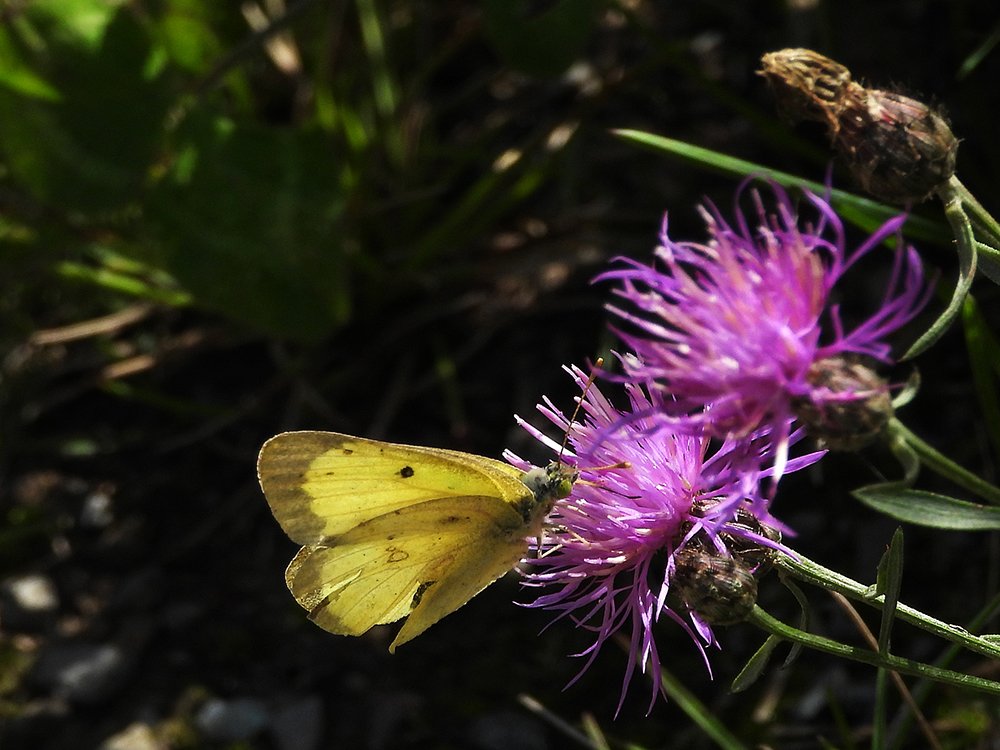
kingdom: Animalia
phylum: Arthropoda
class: Insecta
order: Lepidoptera
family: Pieridae
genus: Colias
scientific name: Colias philodice
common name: Clouded Sulphur
